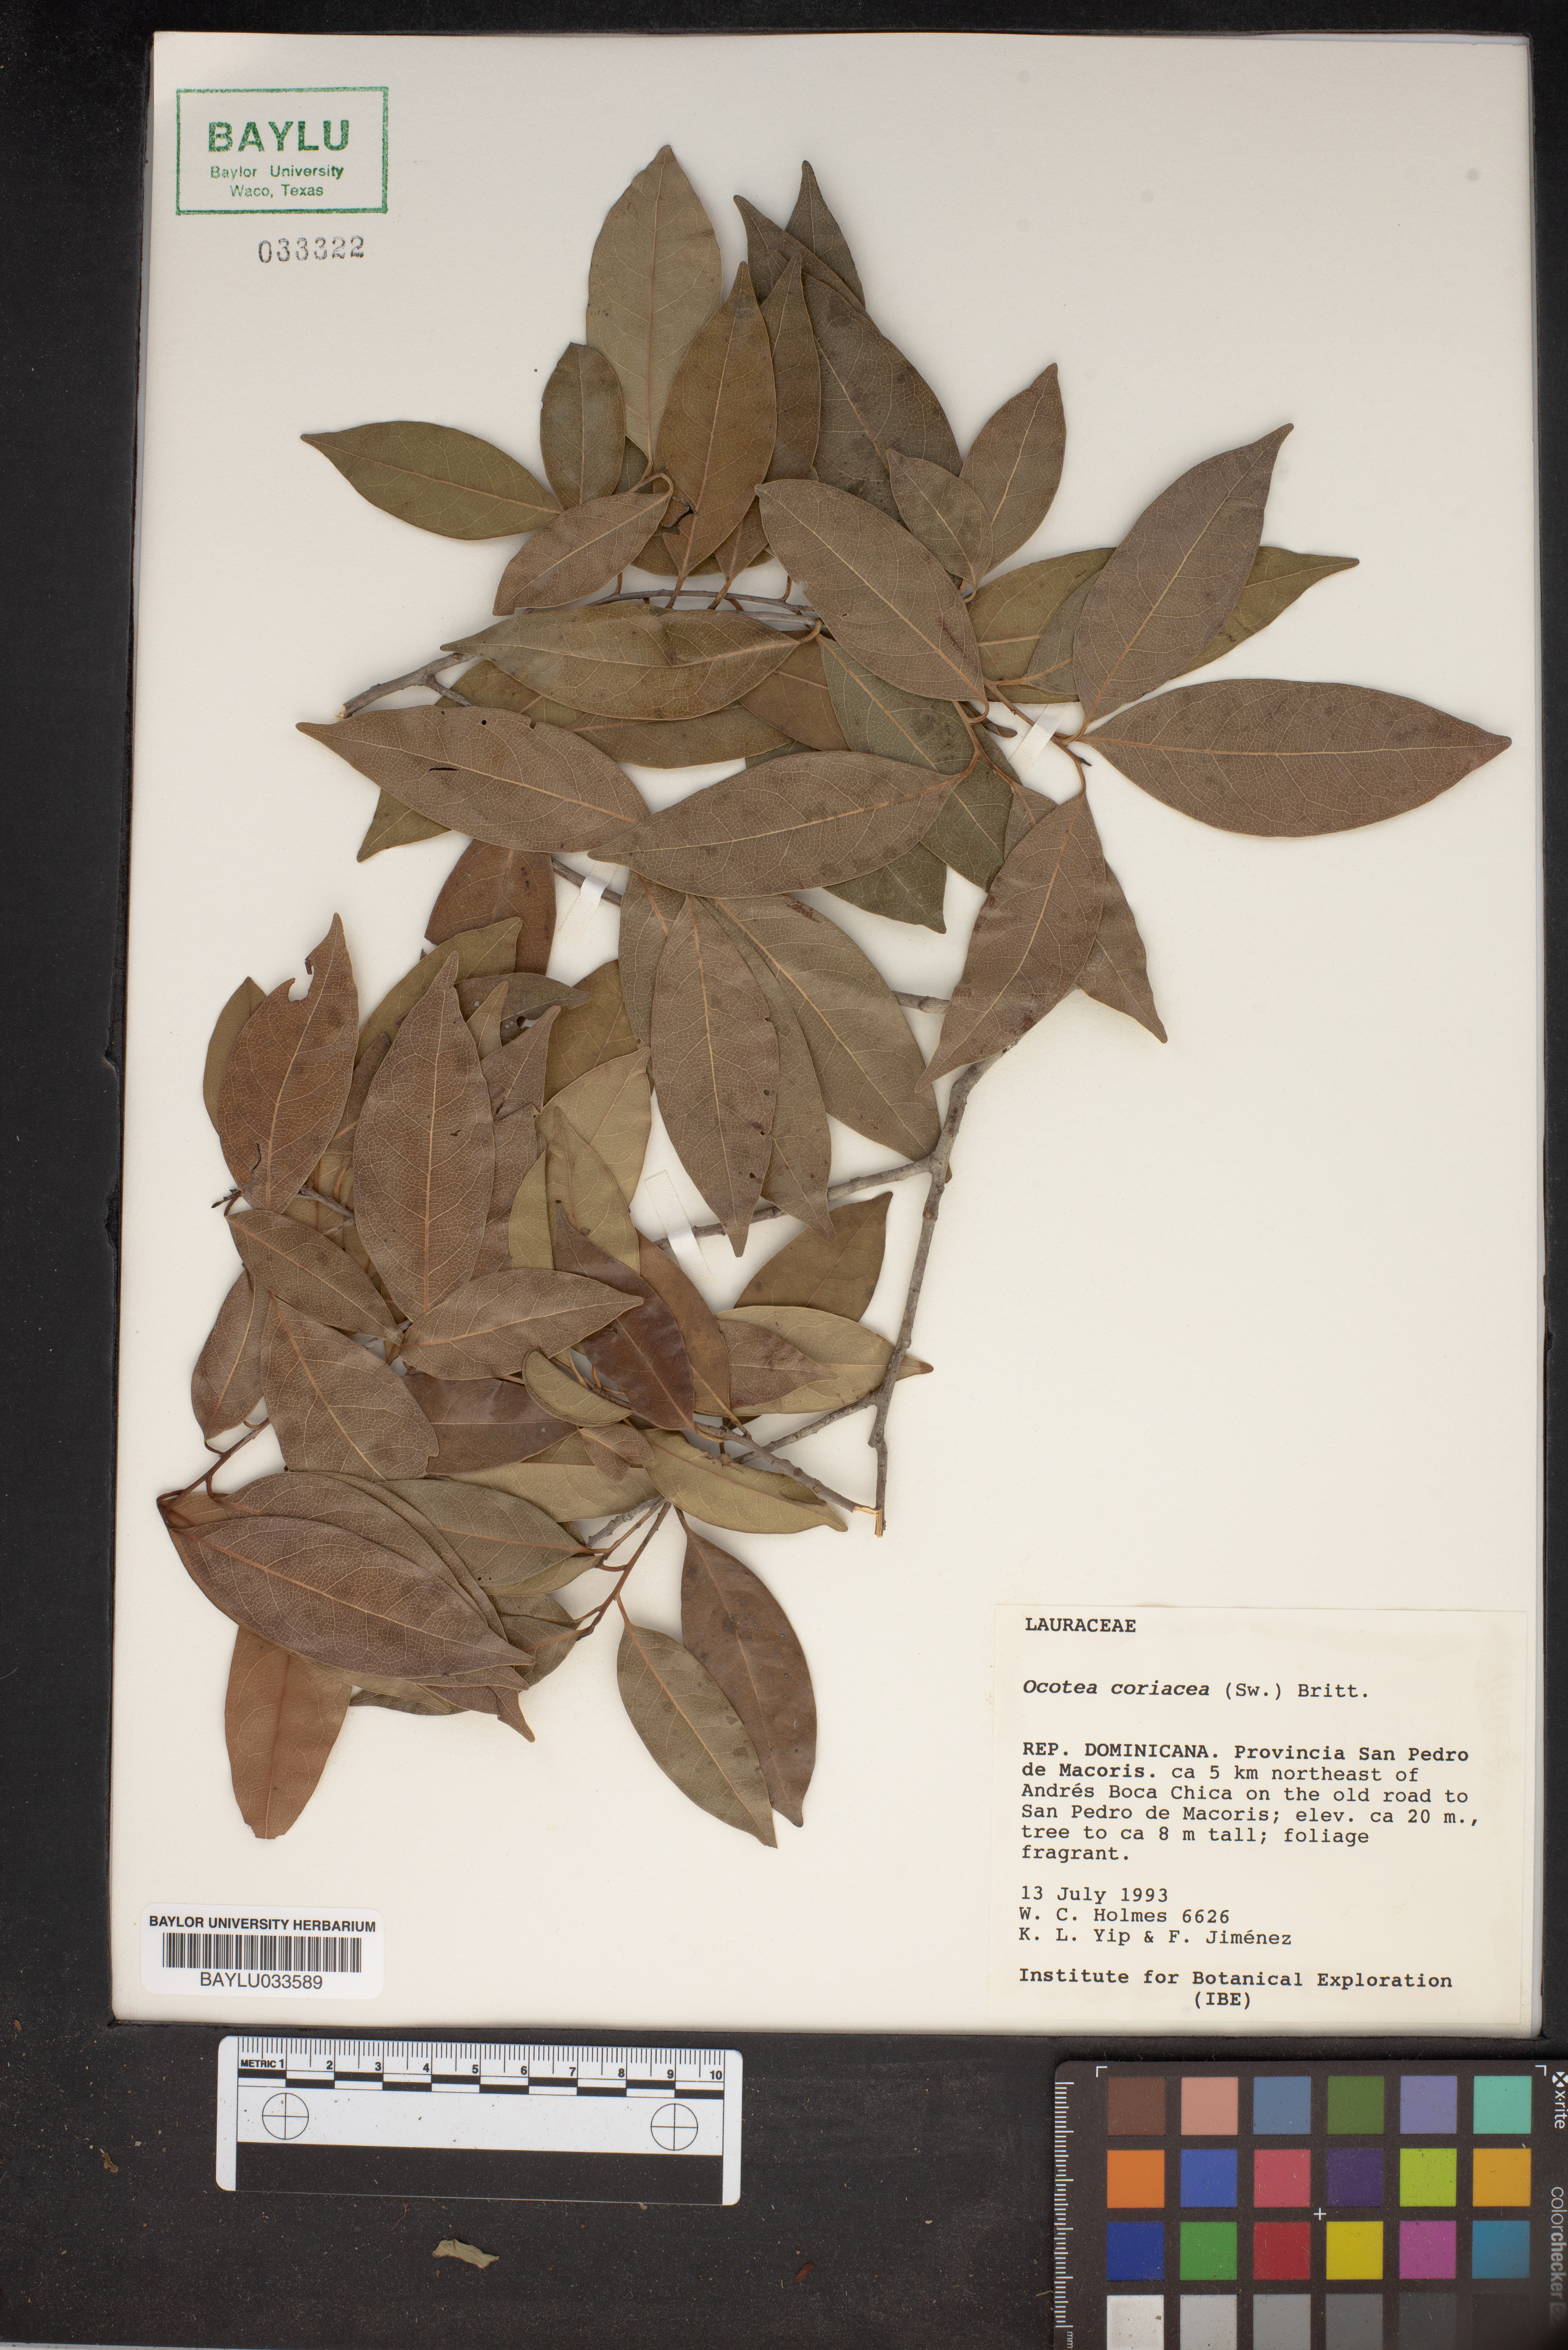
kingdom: Plantae
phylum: Tracheophyta
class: Magnoliopsida
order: Laurales
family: Lauraceae
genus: Damburneya
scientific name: Damburneya coriacea
